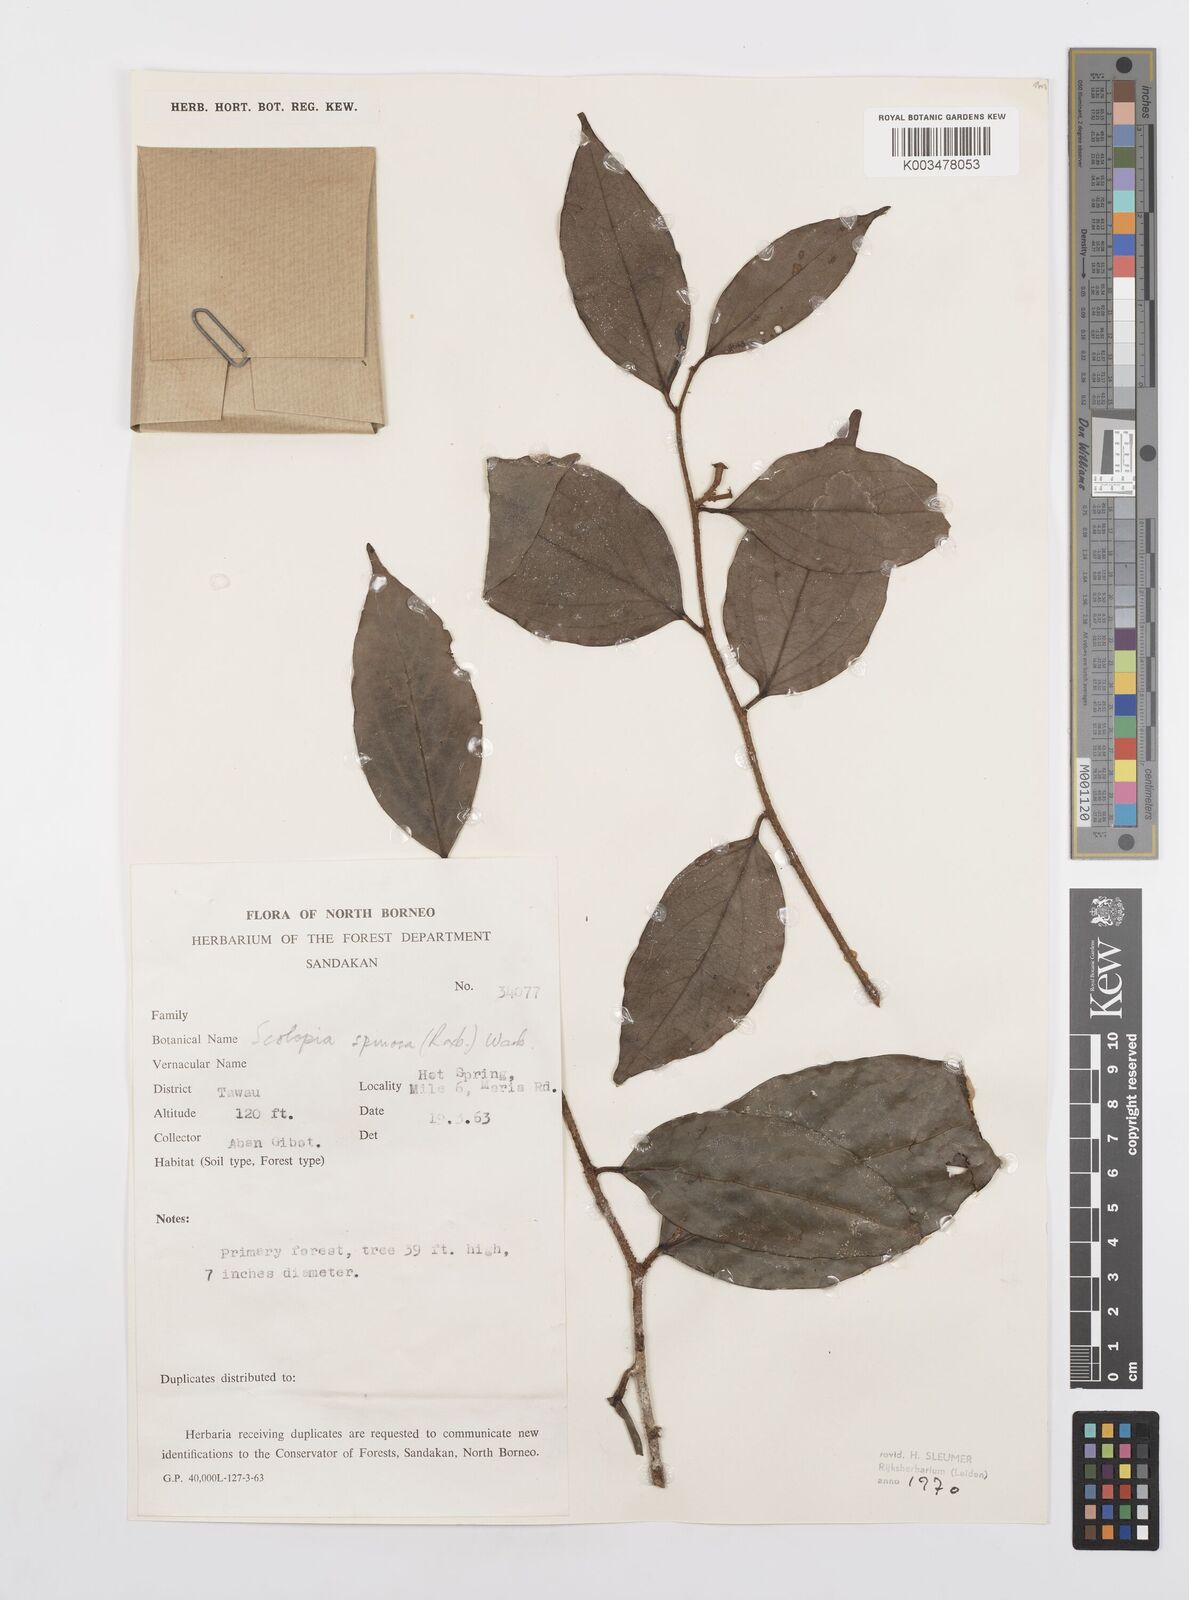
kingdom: Plantae
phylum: Tracheophyta
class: Magnoliopsida
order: Malpighiales
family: Salicaceae
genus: Scolopia
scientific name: Scolopia spinosa
